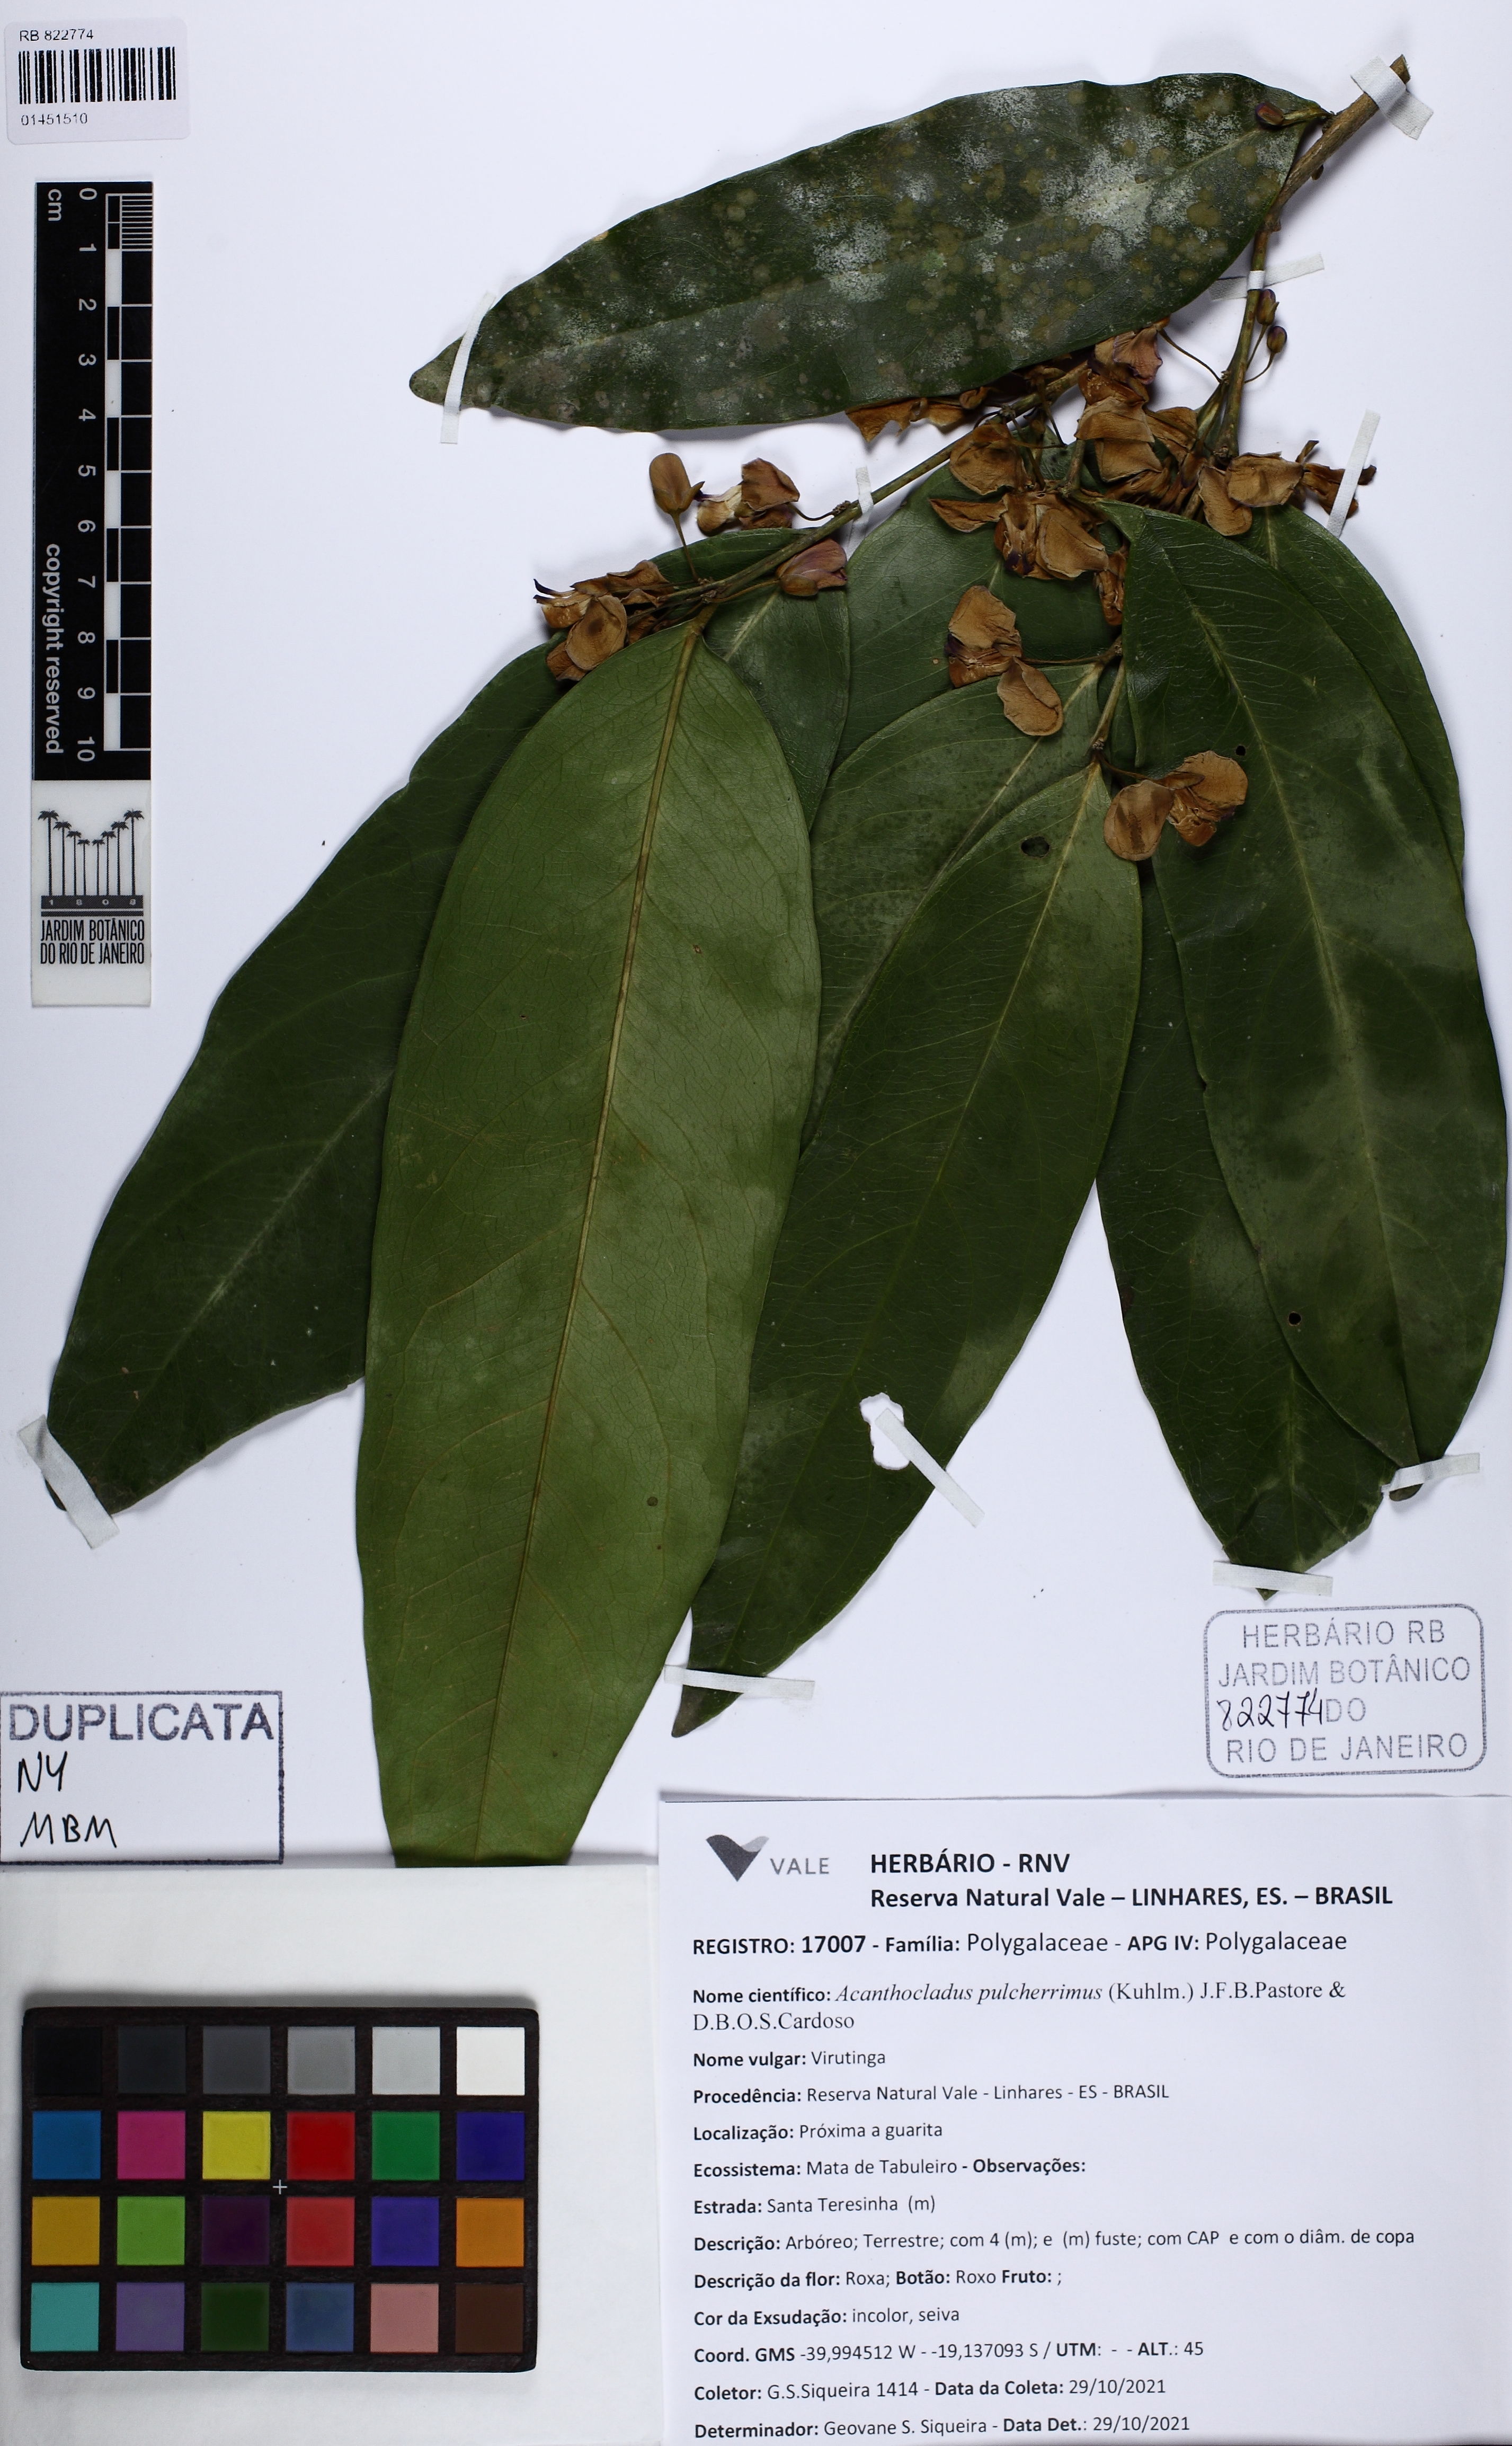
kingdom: Plantae
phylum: Tracheophyta
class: Magnoliopsida
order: Fabales
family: Polygalaceae
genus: Acanthocladus
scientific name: Acanthocladus pulcherrimus
